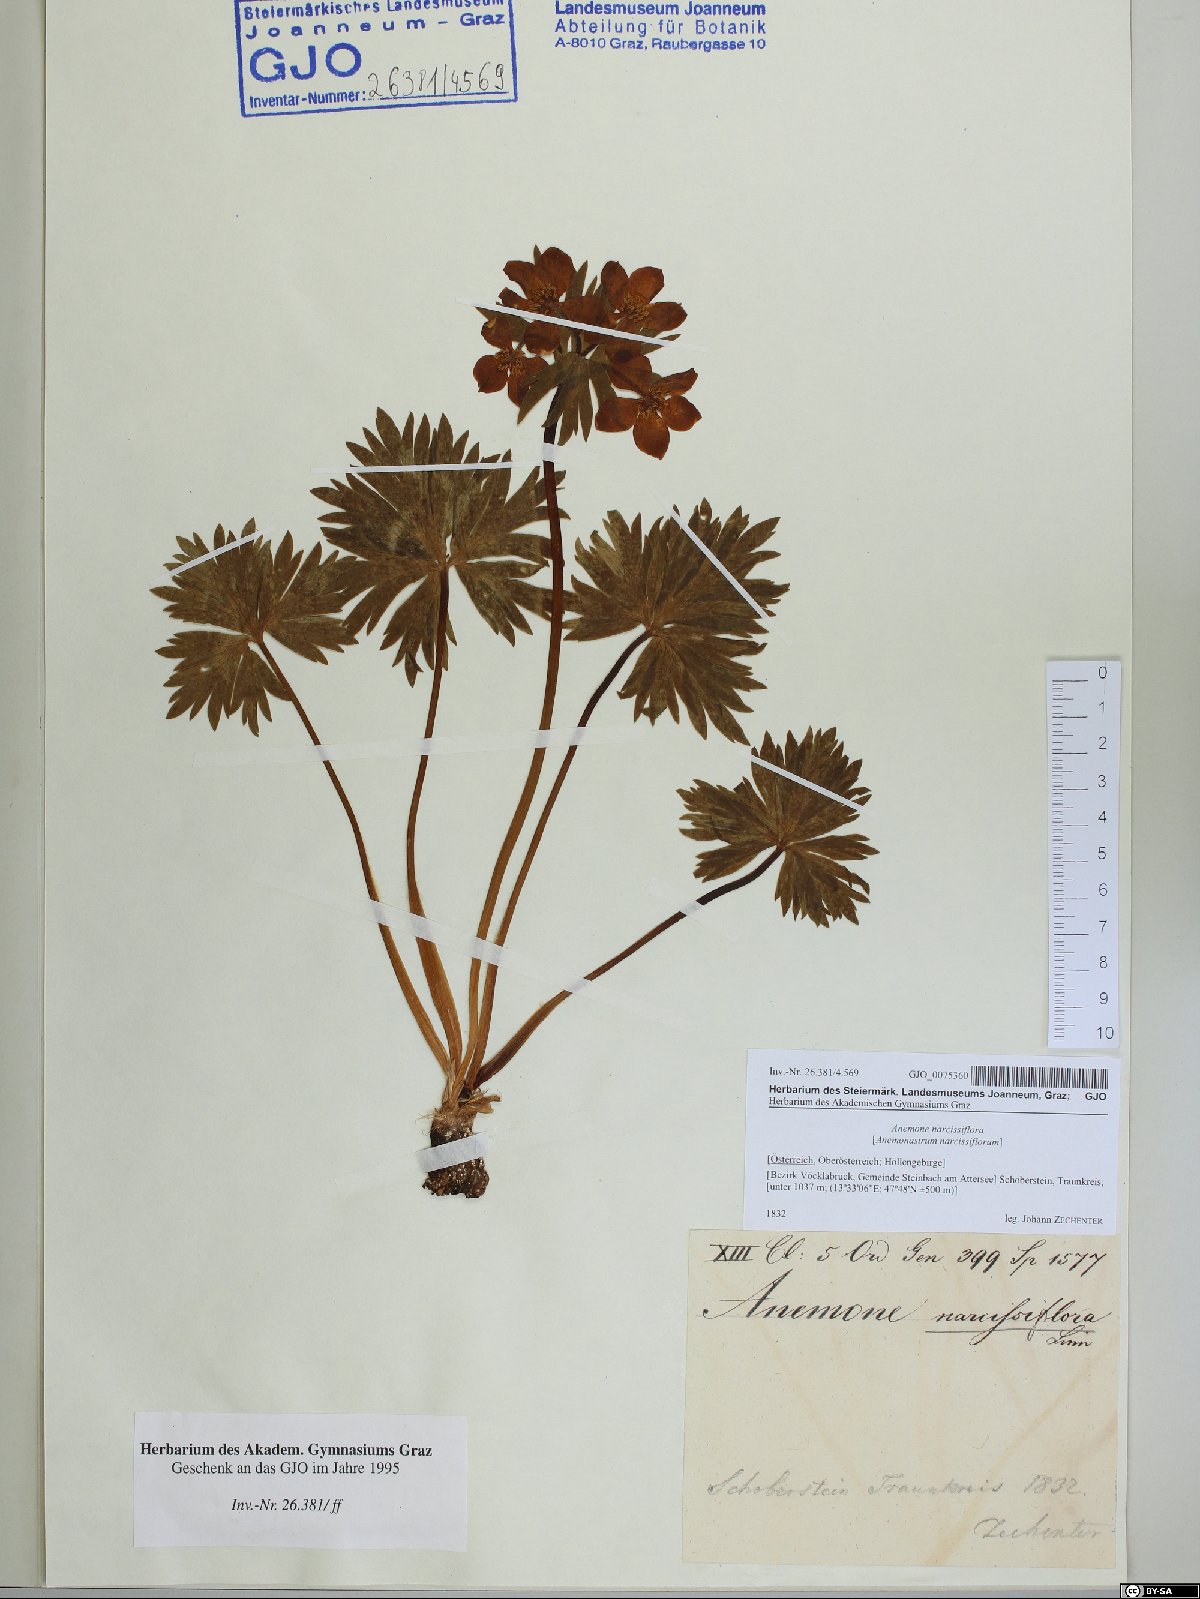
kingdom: Plantae
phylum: Tracheophyta
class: Magnoliopsida
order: Ranunculales
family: Ranunculaceae
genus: Anemonastrum
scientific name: Anemonastrum narcissiflorum
